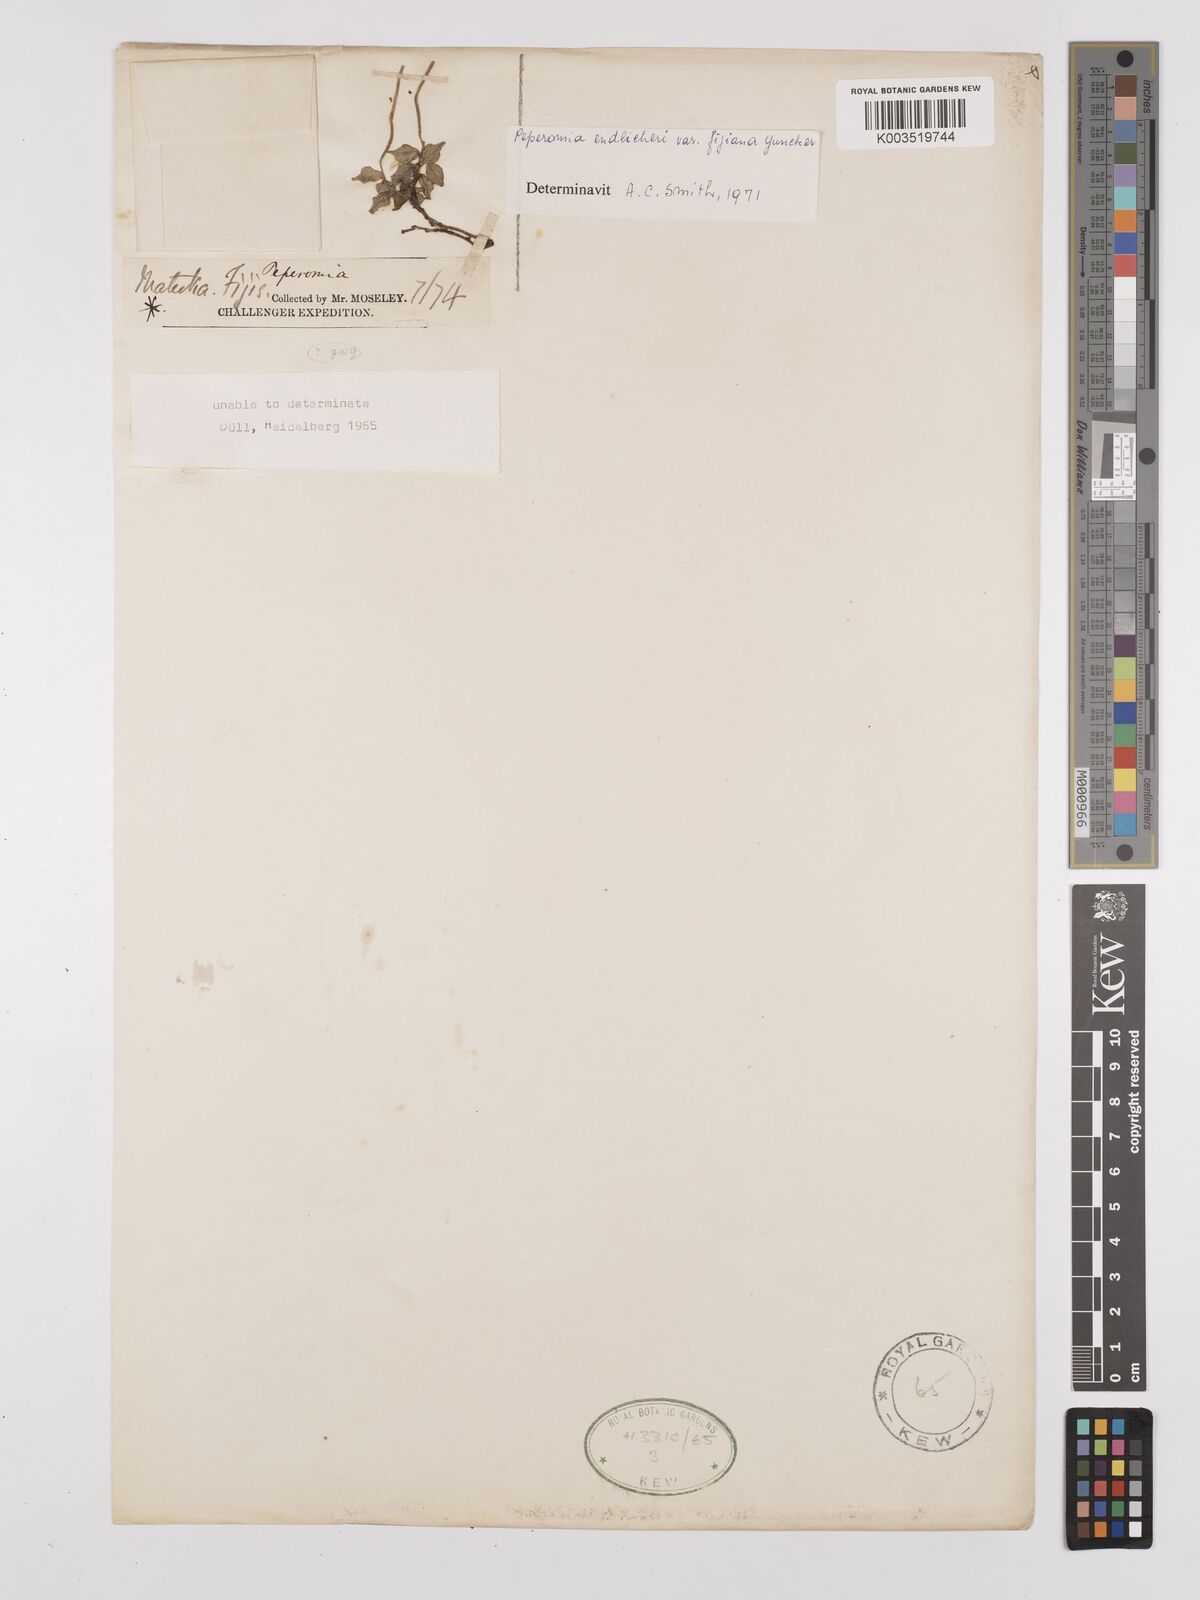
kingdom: Plantae
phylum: Tracheophyta
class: Magnoliopsida
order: Piperales
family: Piperaceae
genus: Peperomia
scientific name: Peperomia urvilleana
